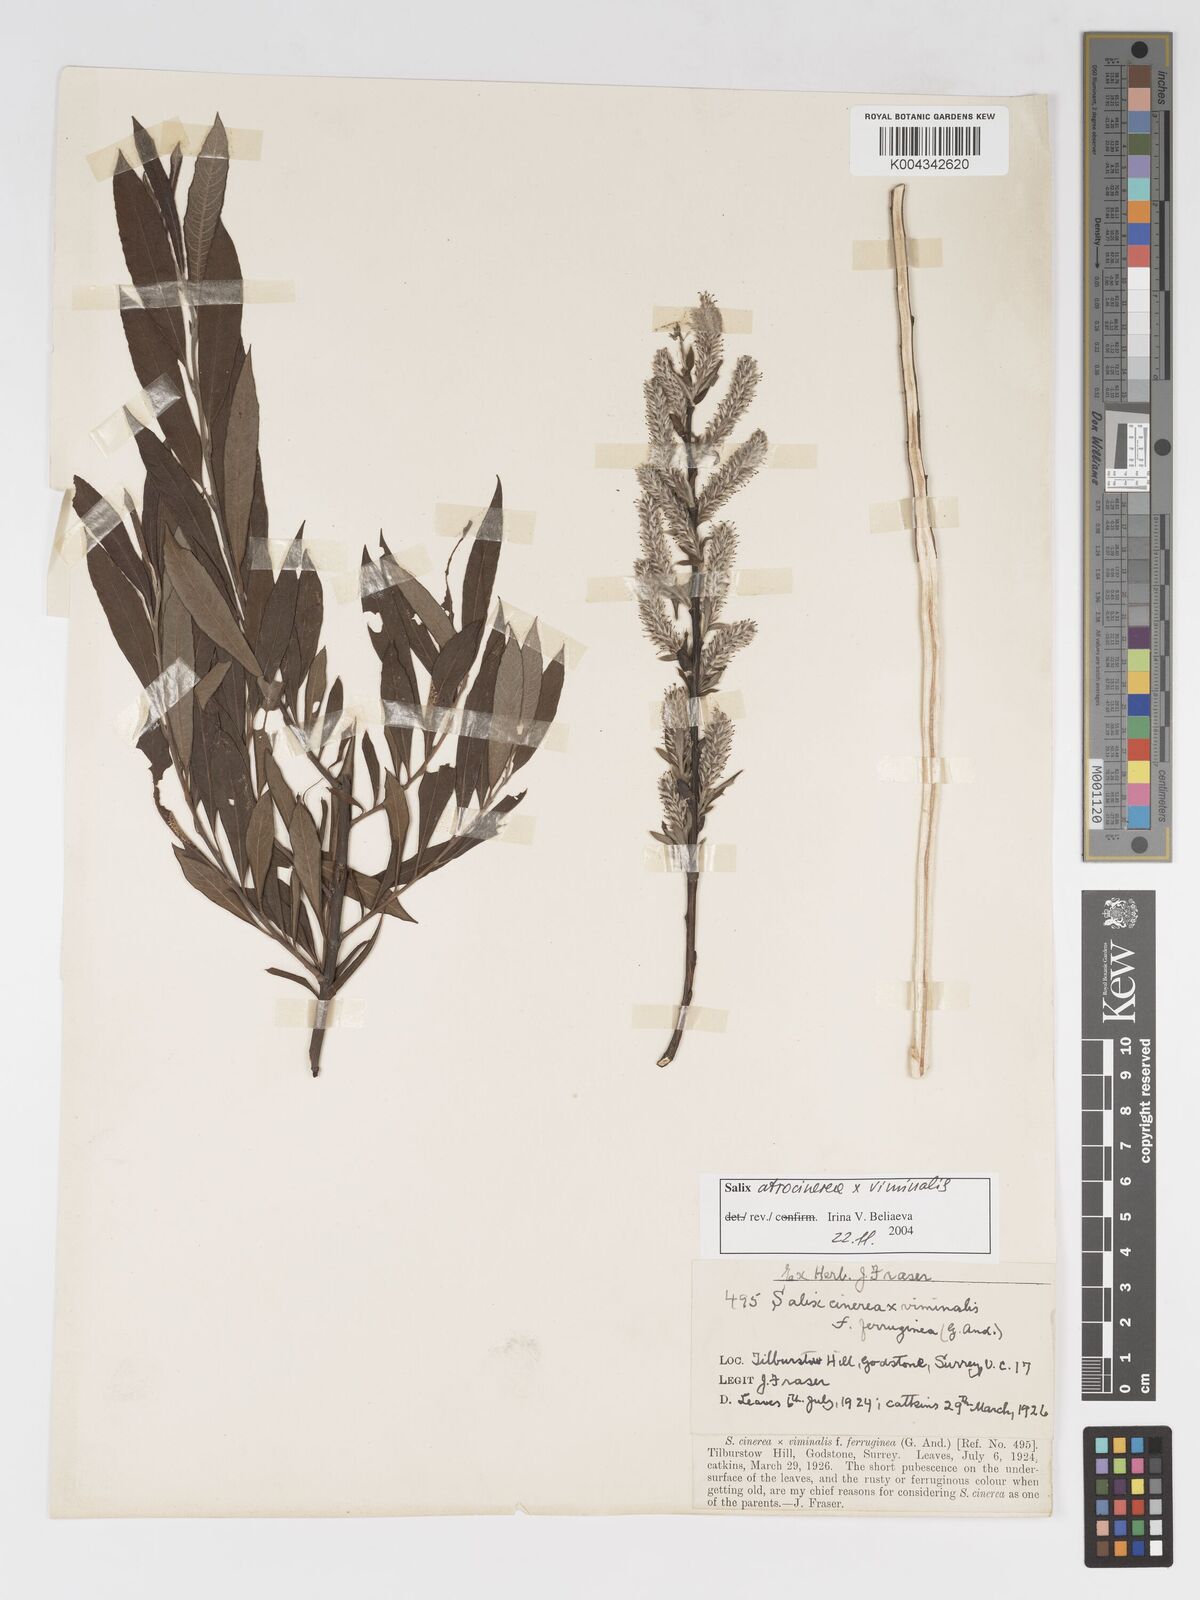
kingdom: Plantae
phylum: Tracheophyta
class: Magnoliopsida
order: Malpighiales
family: Salicaceae
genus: Salix
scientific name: Salix atrocinerea
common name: Rusty willow
